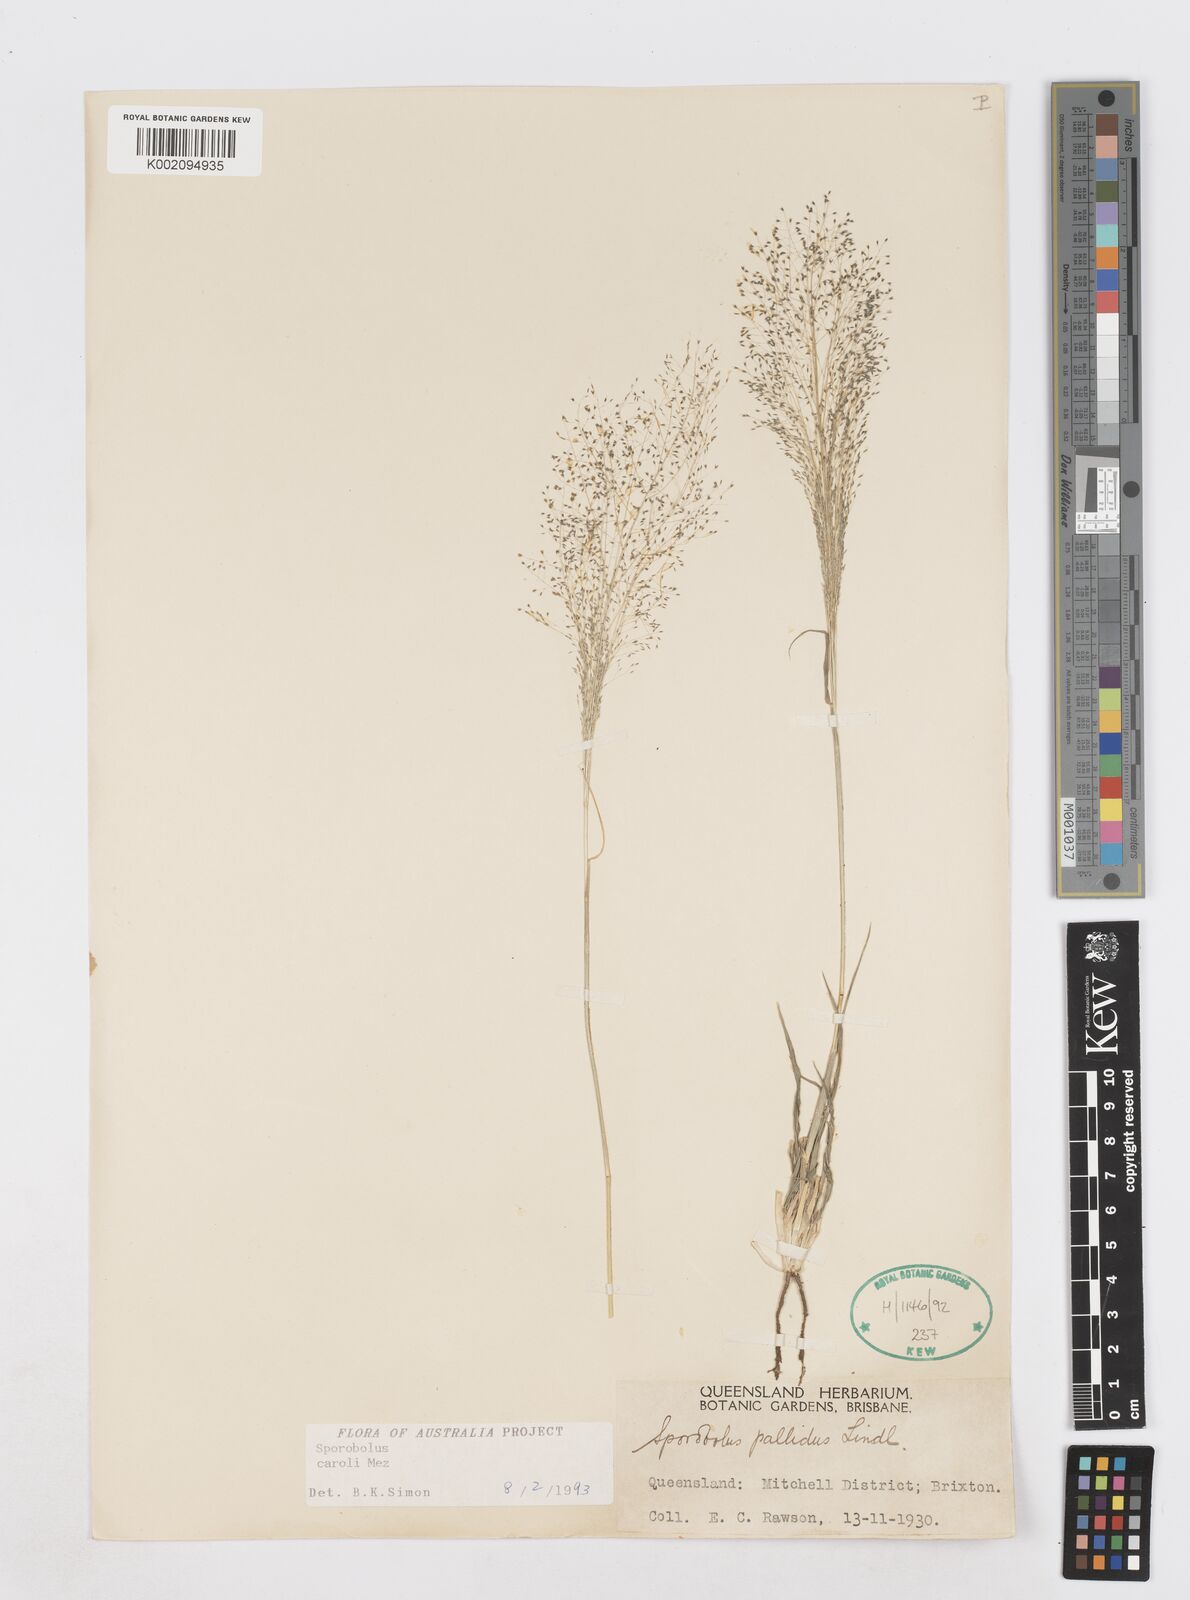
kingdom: Plantae
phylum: Tracheophyta
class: Liliopsida
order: Poales
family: Poaceae
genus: Sporobolus
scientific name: Sporobolus caroli
